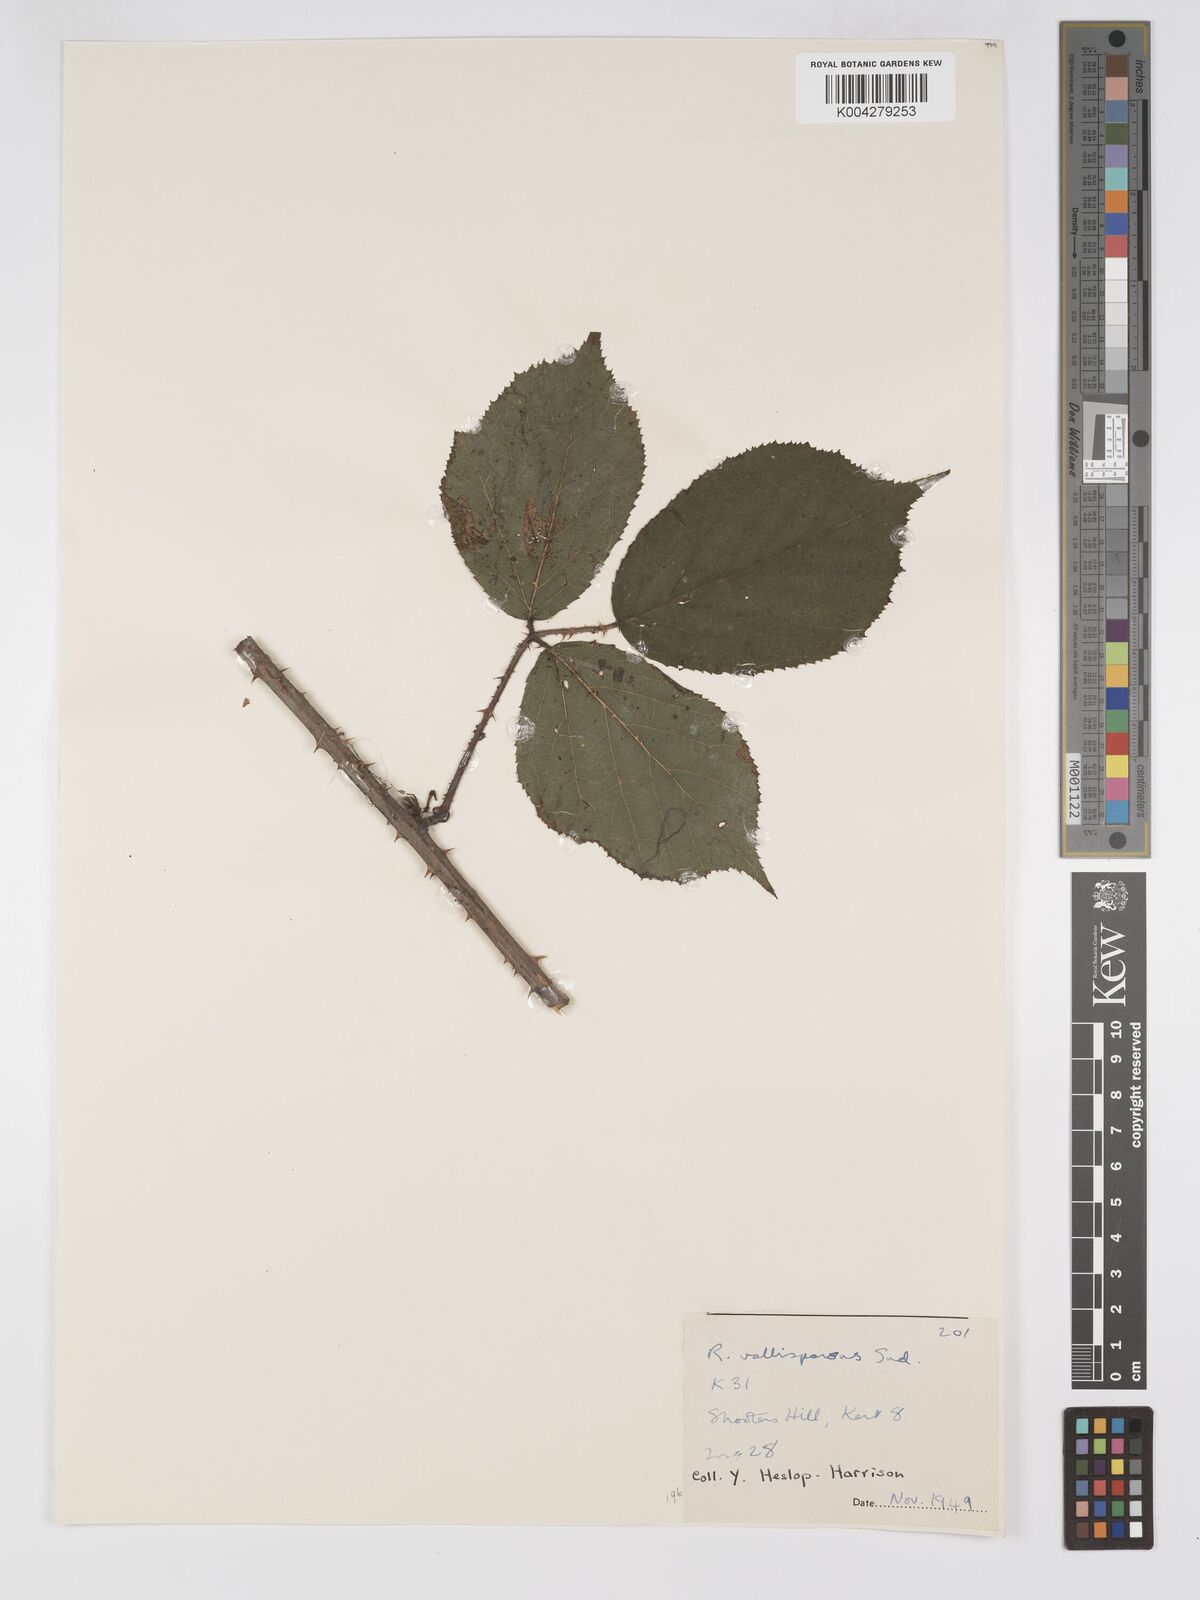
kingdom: Plantae
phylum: Tracheophyta
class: Magnoliopsida
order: Rosales
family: Rosaceae
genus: Rubus
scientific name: Rubus vallisparsus
